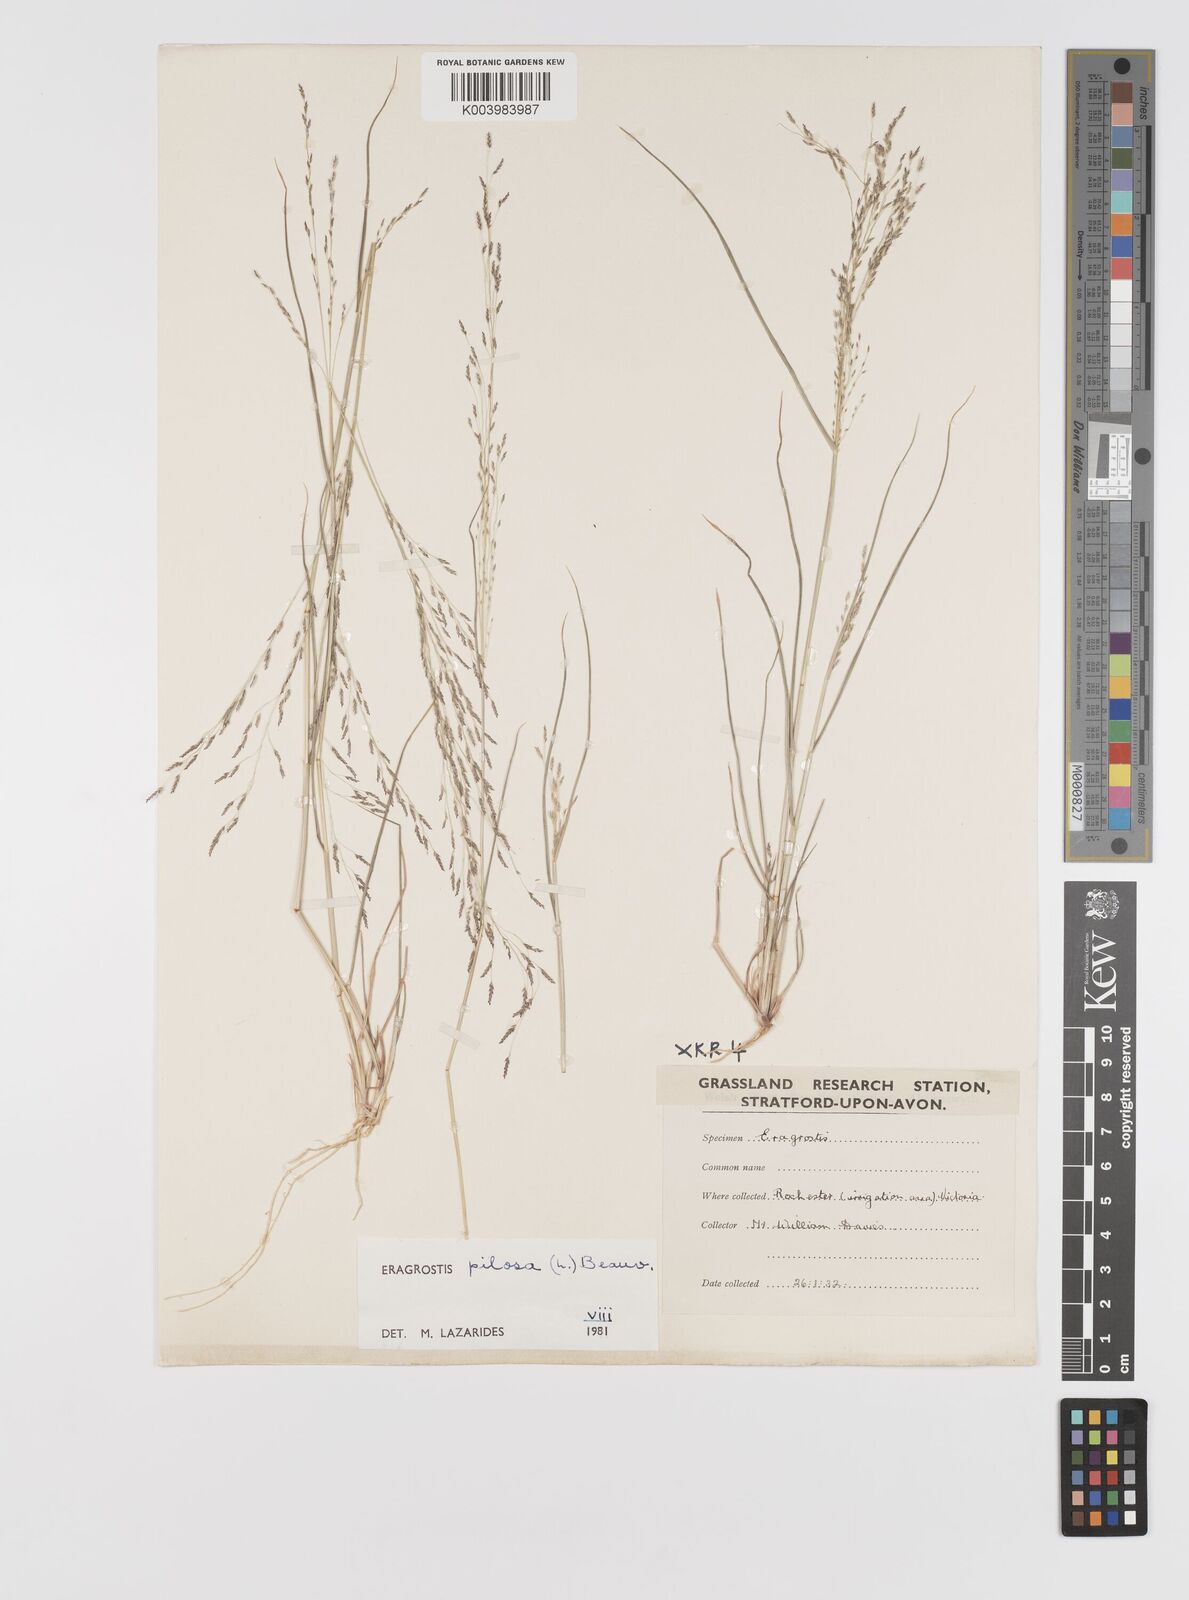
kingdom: Plantae
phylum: Tracheophyta
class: Liliopsida
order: Poales
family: Poaceae
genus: Eragrostis
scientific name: Eragrostis pilosa
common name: Indian lovegrass
